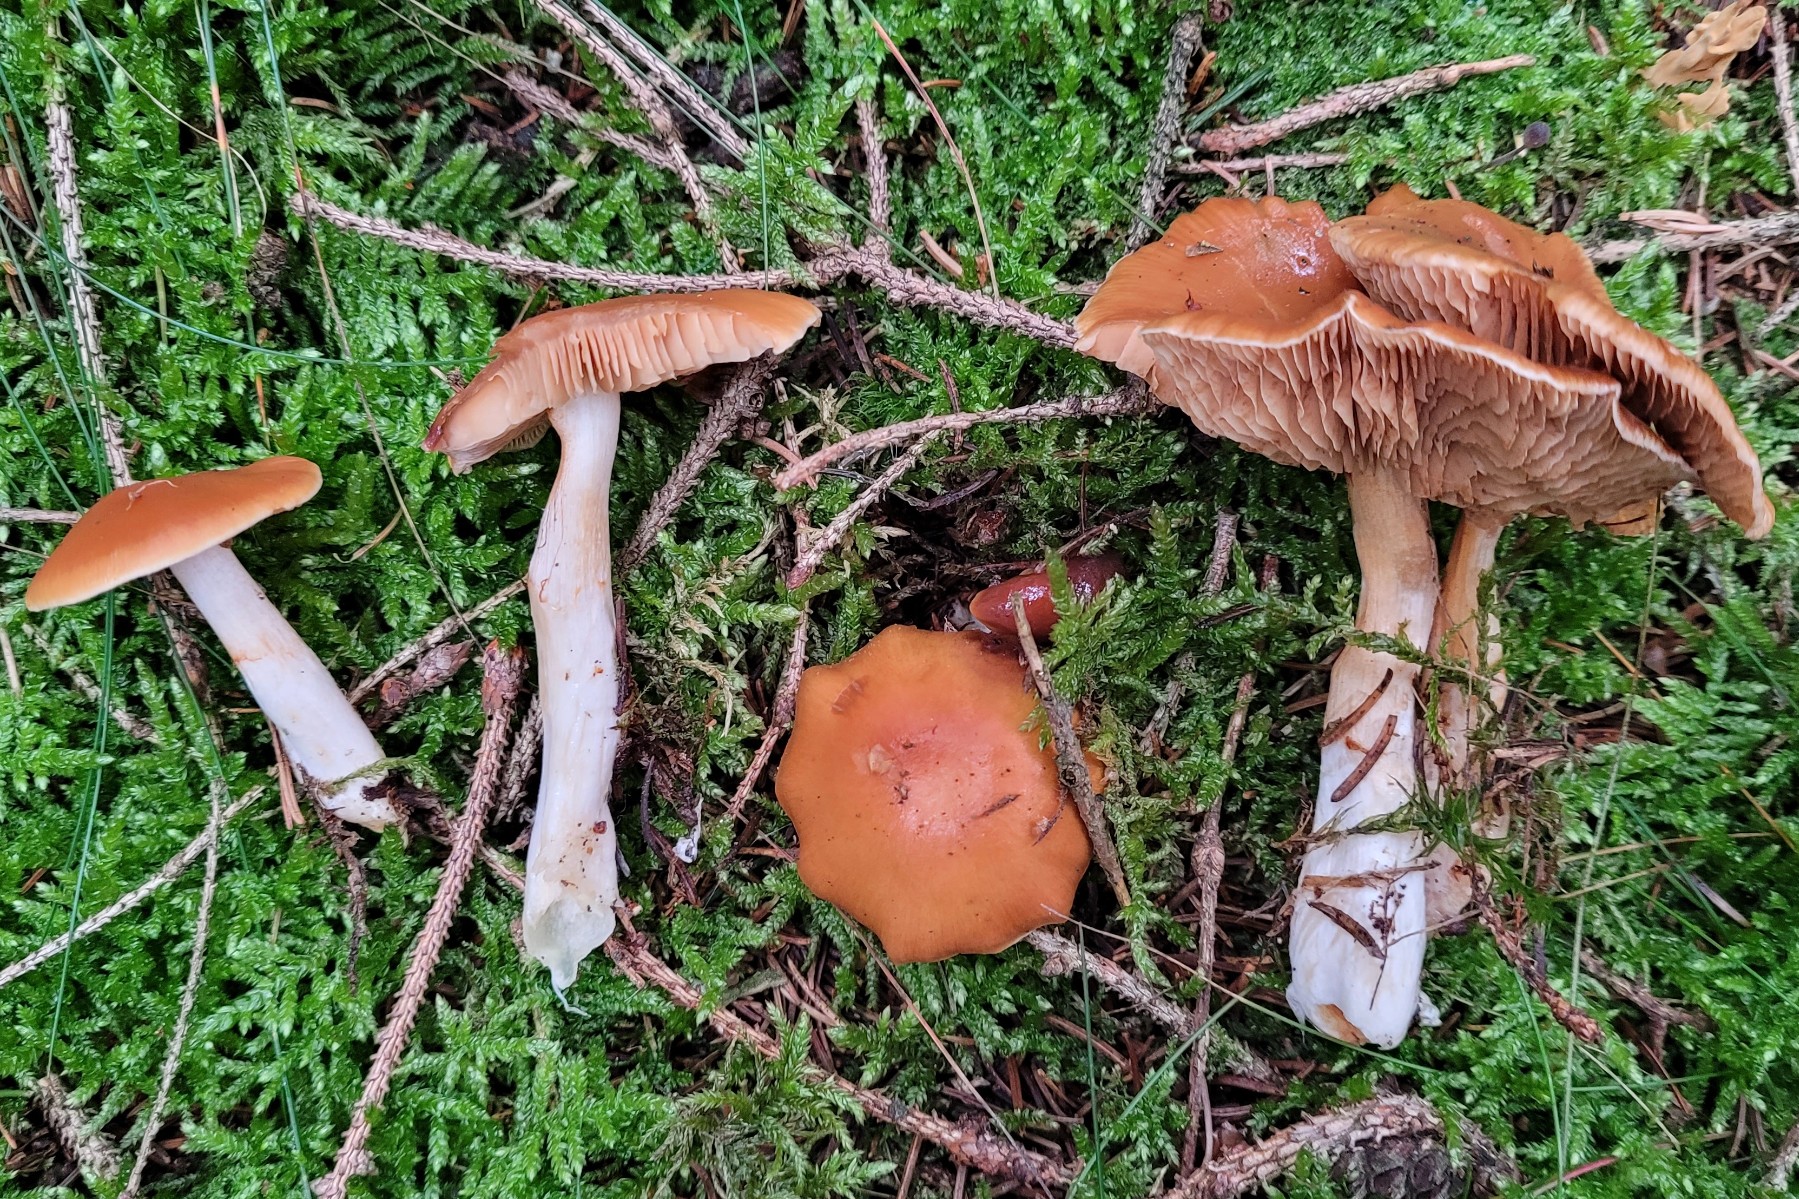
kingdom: Fungi
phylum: Basidiomycota
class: Agaricomycetes
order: Agaricales
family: Cortinariaceae
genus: Thaxterogaster
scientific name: Thaxterogaster causticus
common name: peber-slørhat
